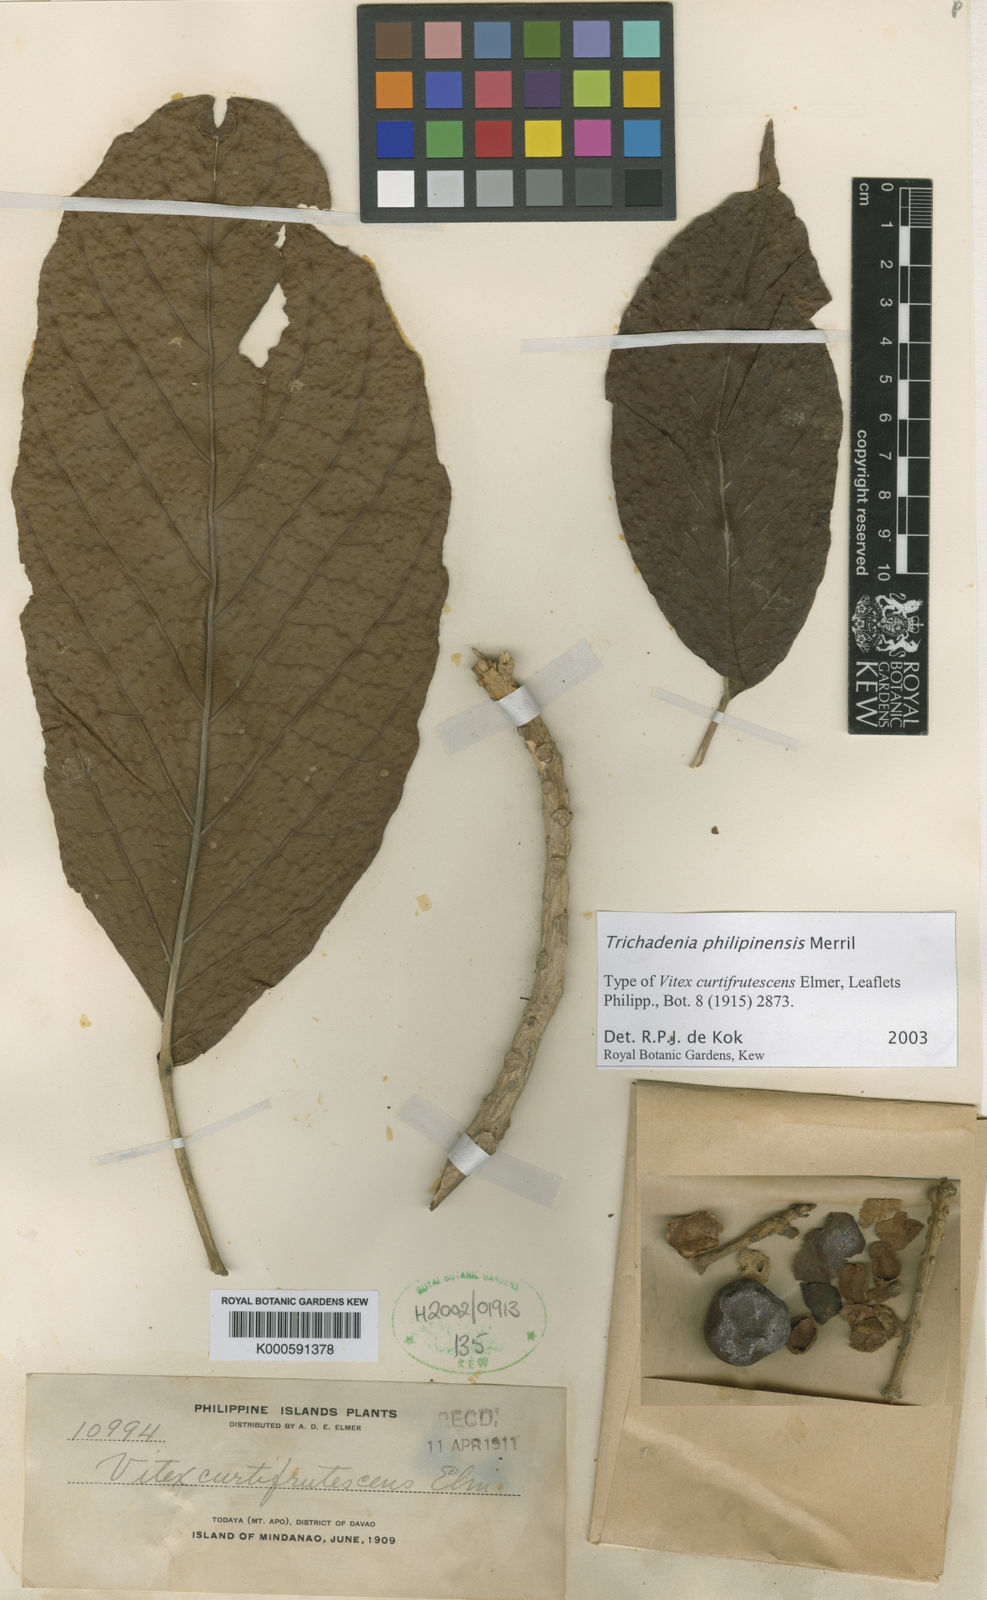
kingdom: Plantae
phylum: Tracheophyta
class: Magnoliopsida
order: Malpighiales
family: Achariaceae
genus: Trichadenia
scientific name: Trichadenia philippinensis
